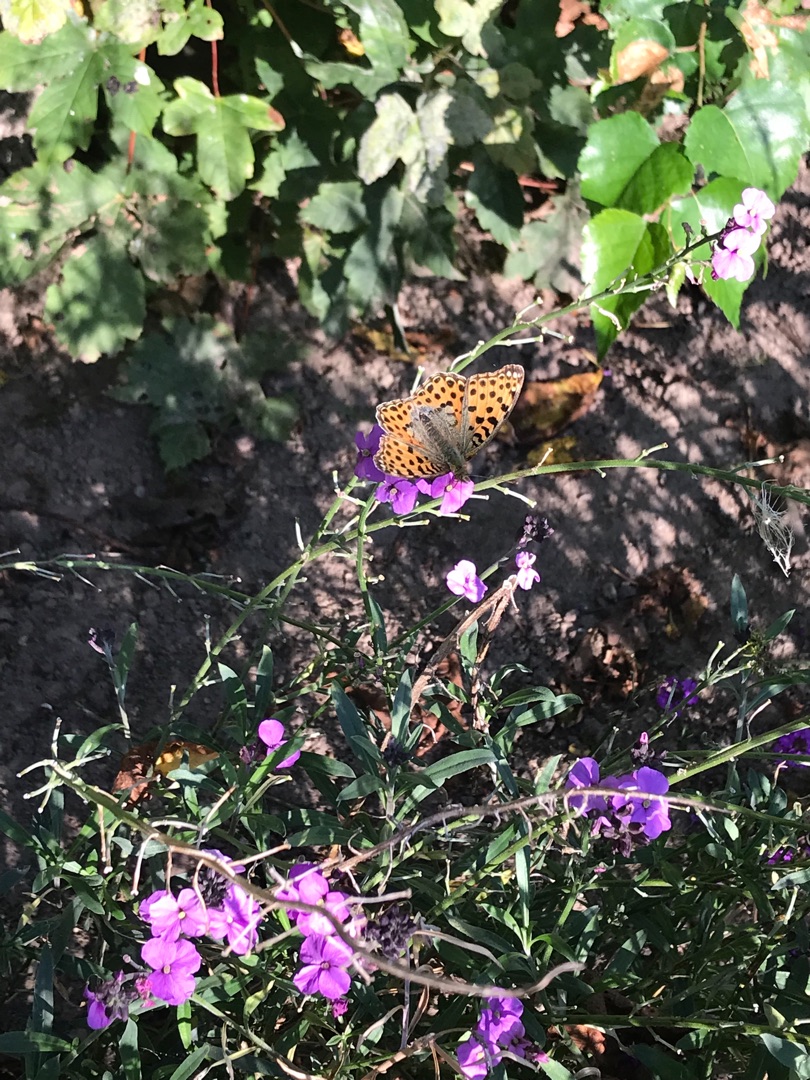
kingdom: Animalia
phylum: Arthropoda
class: Insecta
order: Lepidoptera
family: Nymphalidae
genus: Issoria
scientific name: Issoria lathonia
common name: Storplettet perlemorsommerfugl
